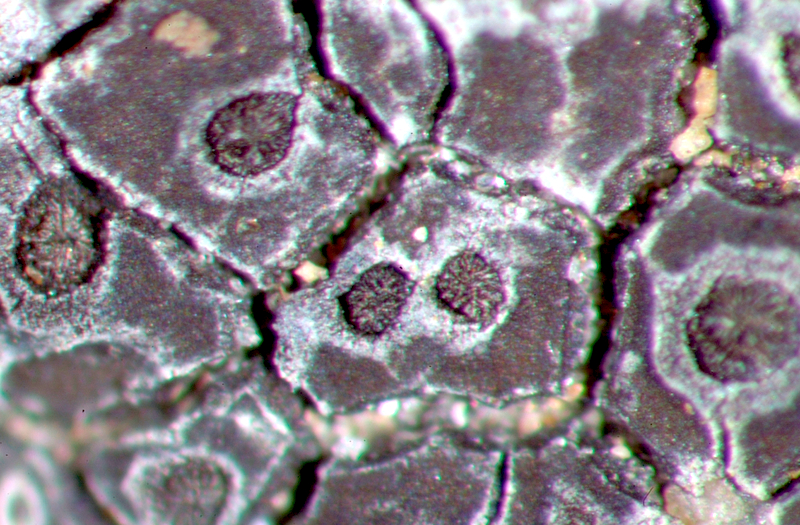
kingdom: Fungi
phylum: Ascomycota
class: Lecanoromycetes
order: Caliciales
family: Physciaceae
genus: Rinodina
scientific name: Rinodina
